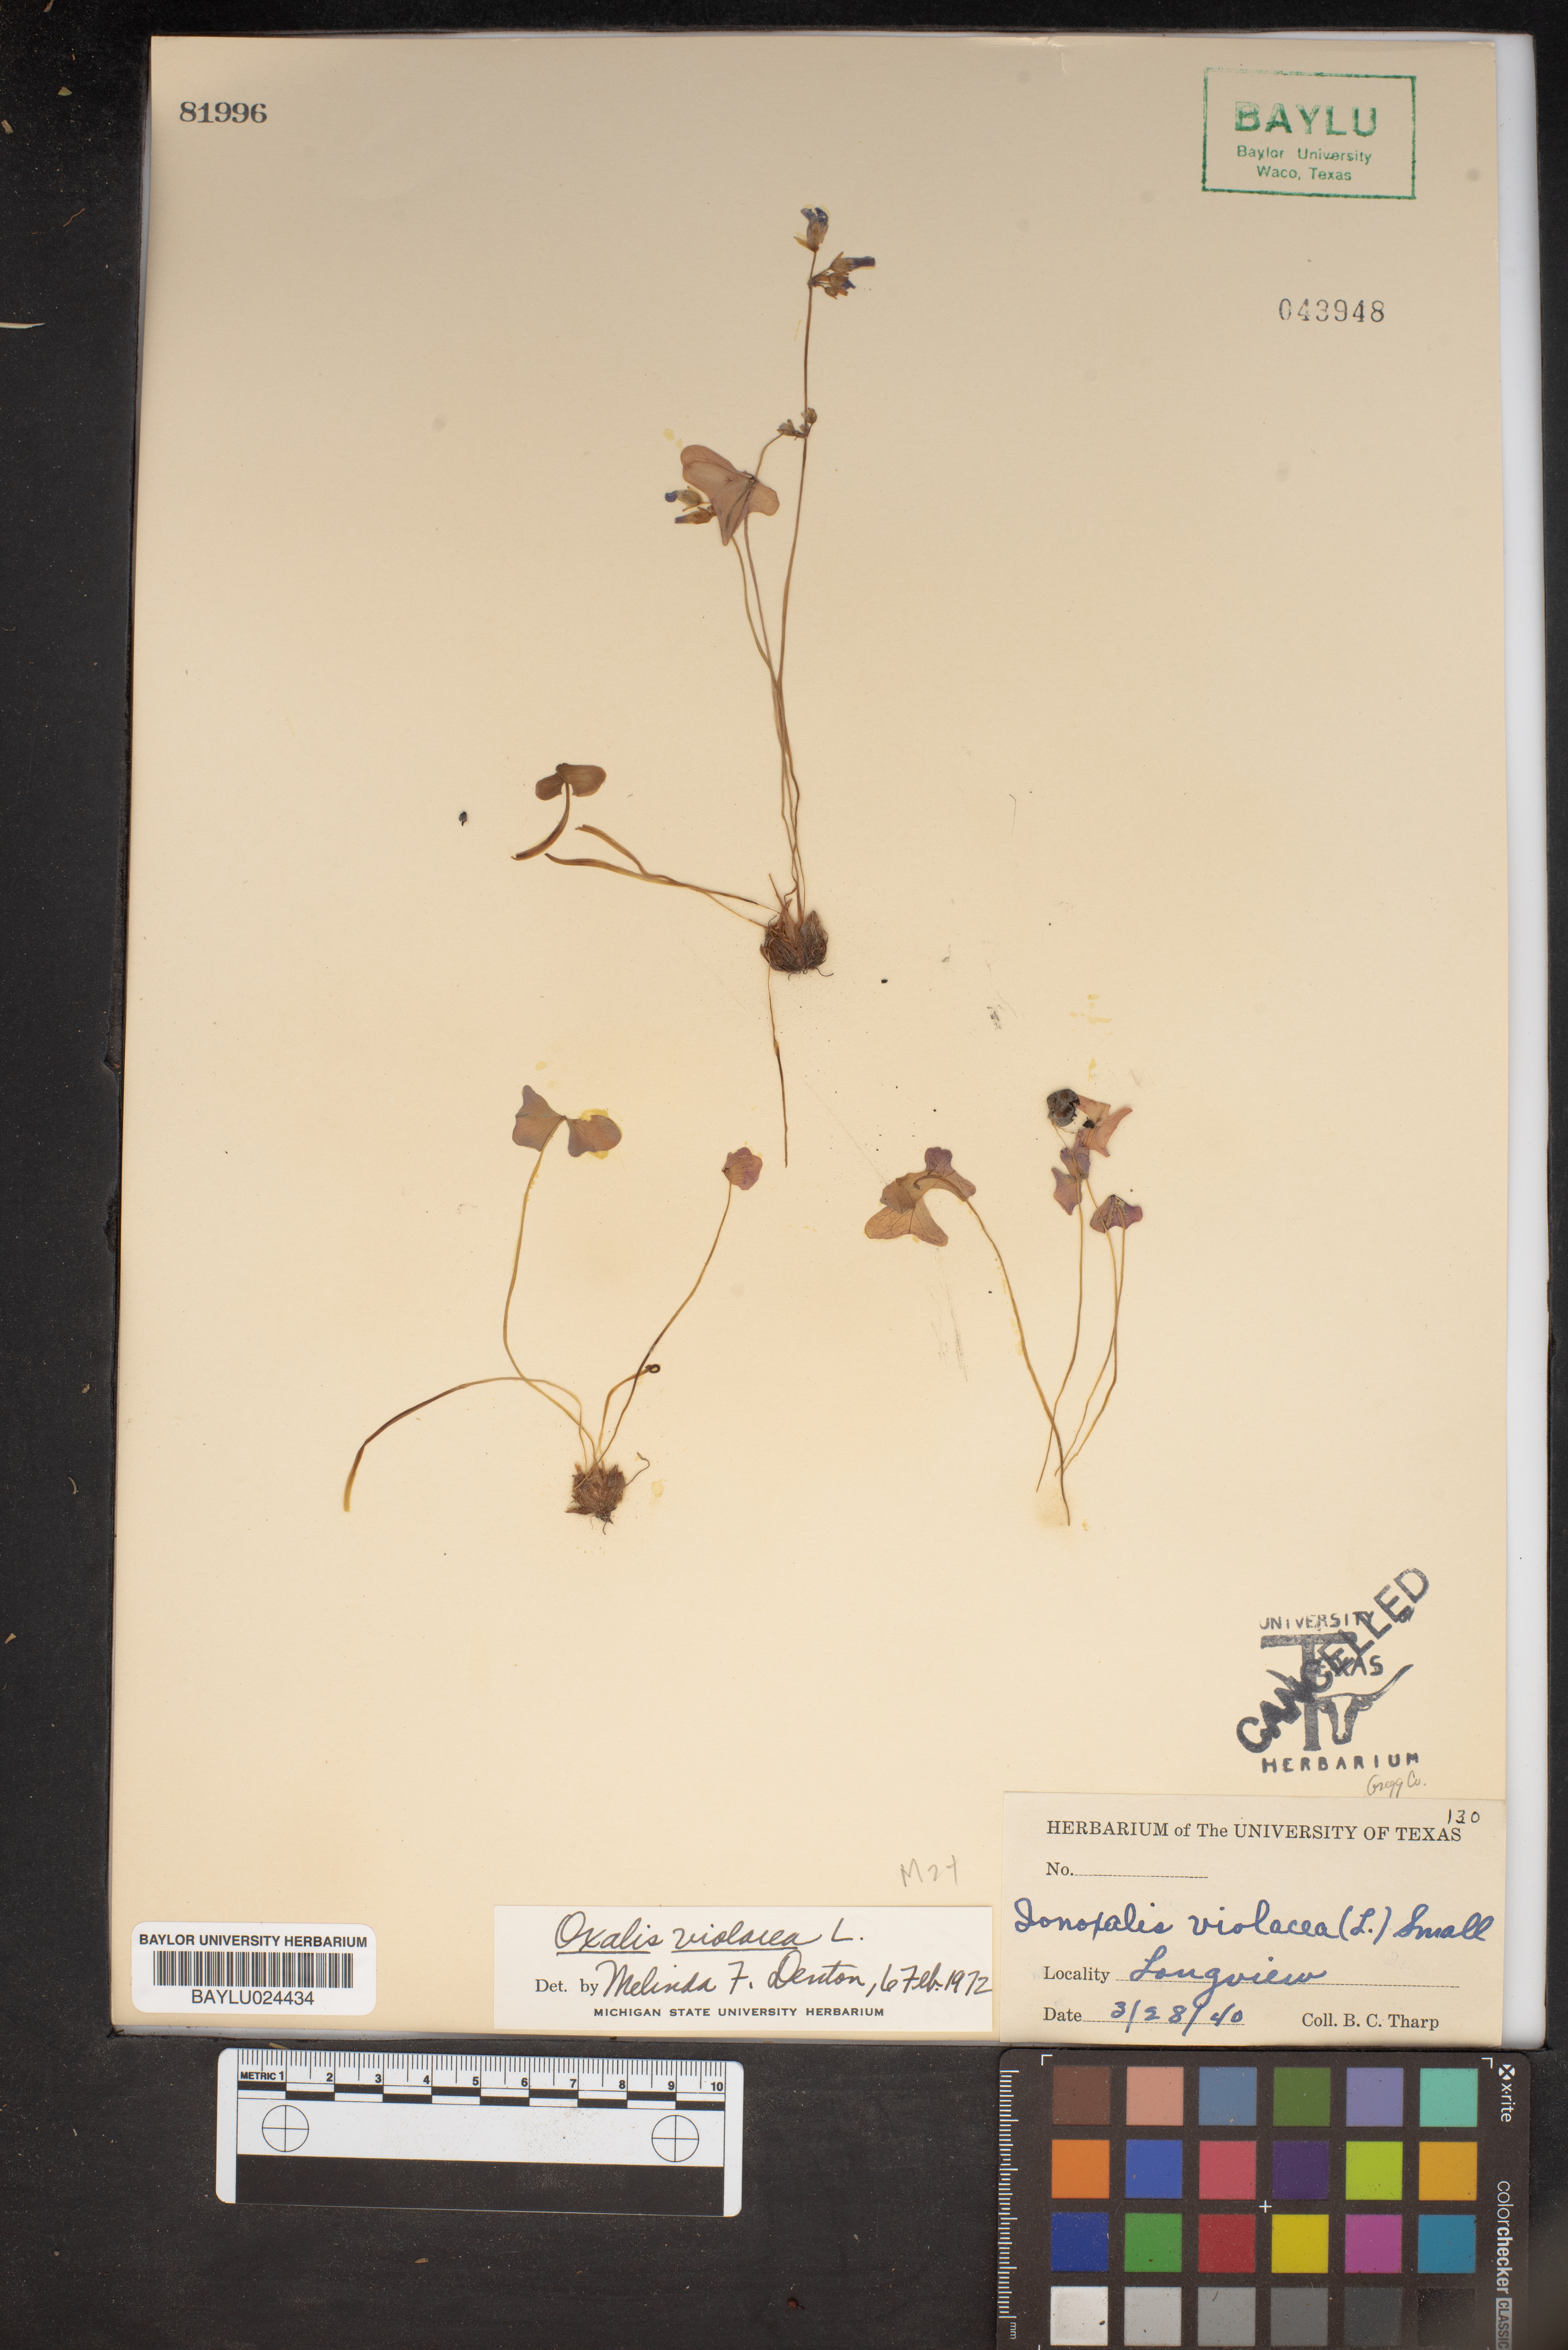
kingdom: Plantae
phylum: Tracheophyta
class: Magnoliopsida
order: Oxalidales
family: Oxalidaceae
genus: Oxalis
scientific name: Oxalis violacea
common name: Violet wood-sorrel
